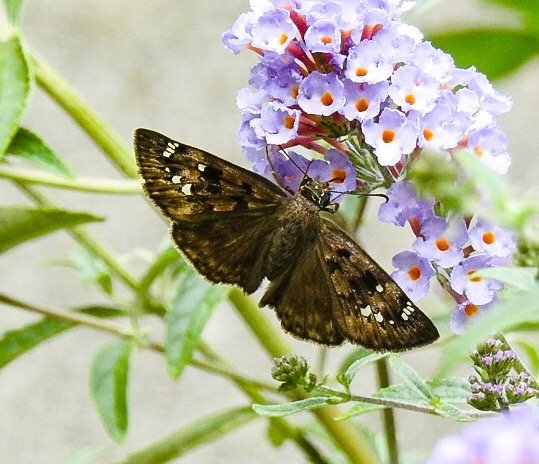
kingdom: Animalia
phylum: Arthropoda
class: Insecta
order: Lepidoptera
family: Hesperiidae
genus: Gesta
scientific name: Gesta
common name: Horace's Duskywing
